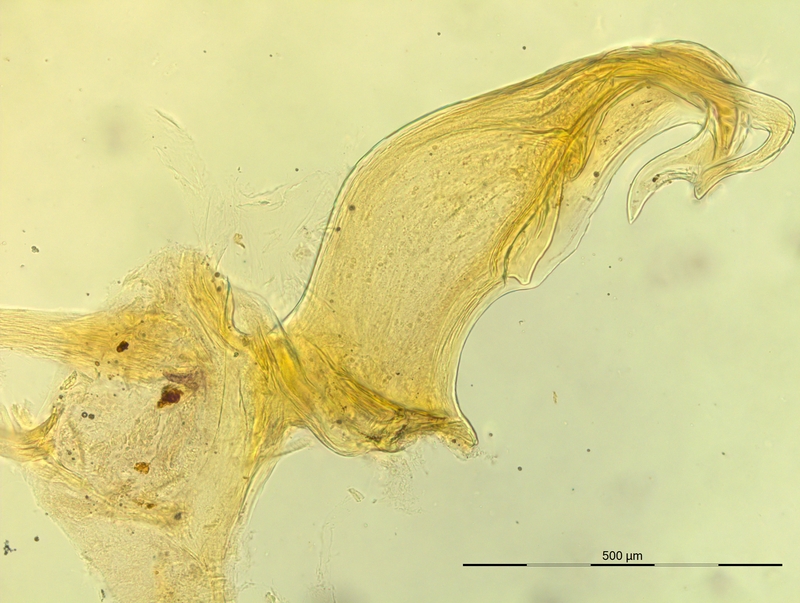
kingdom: Animalia
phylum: Arthropoda
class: Diplopoda
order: Chordeumatida
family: Craspedosomatidae
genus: Bergamosoma
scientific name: Bergamosoma sevini
